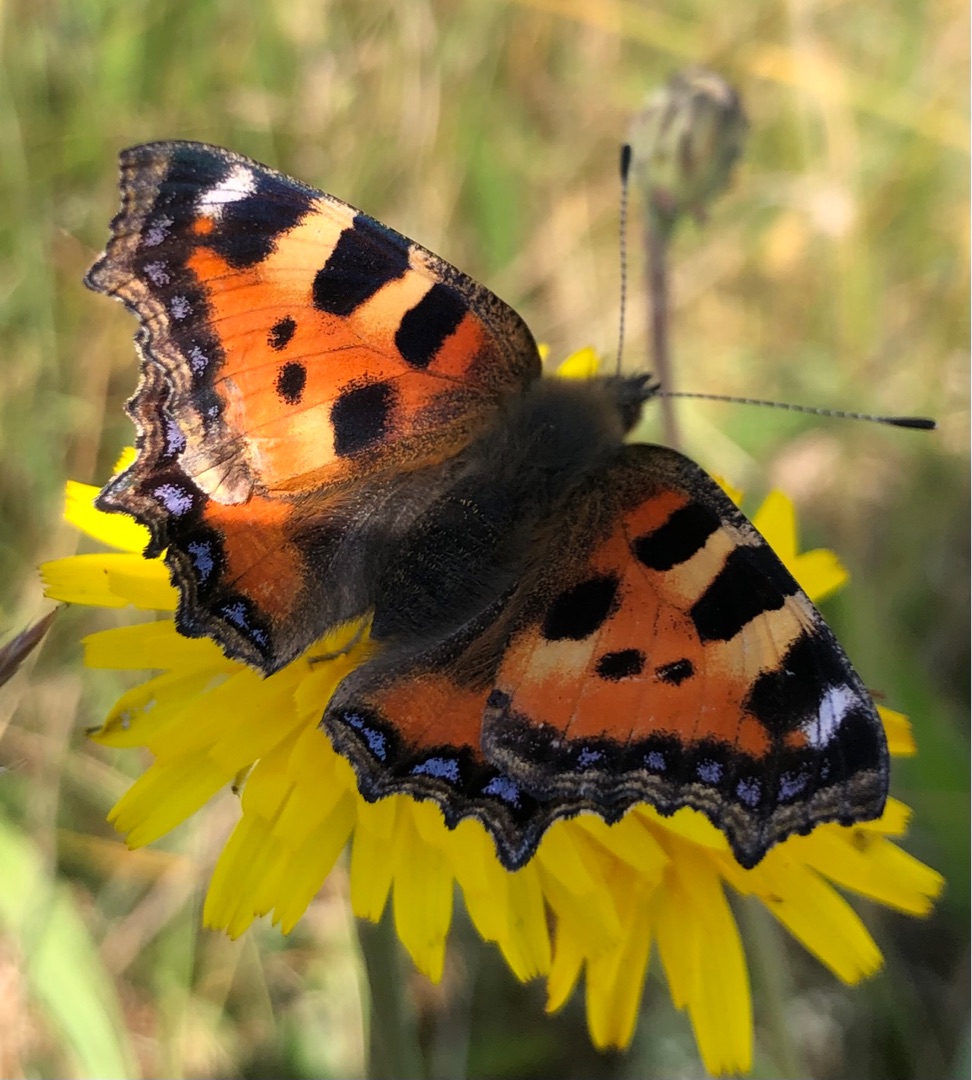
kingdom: Animalia
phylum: Arthropoda
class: Insecta
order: Lepidoptera
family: Nymphalidae
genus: Aglais
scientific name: Aglais urticae
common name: Nældens takvinge
